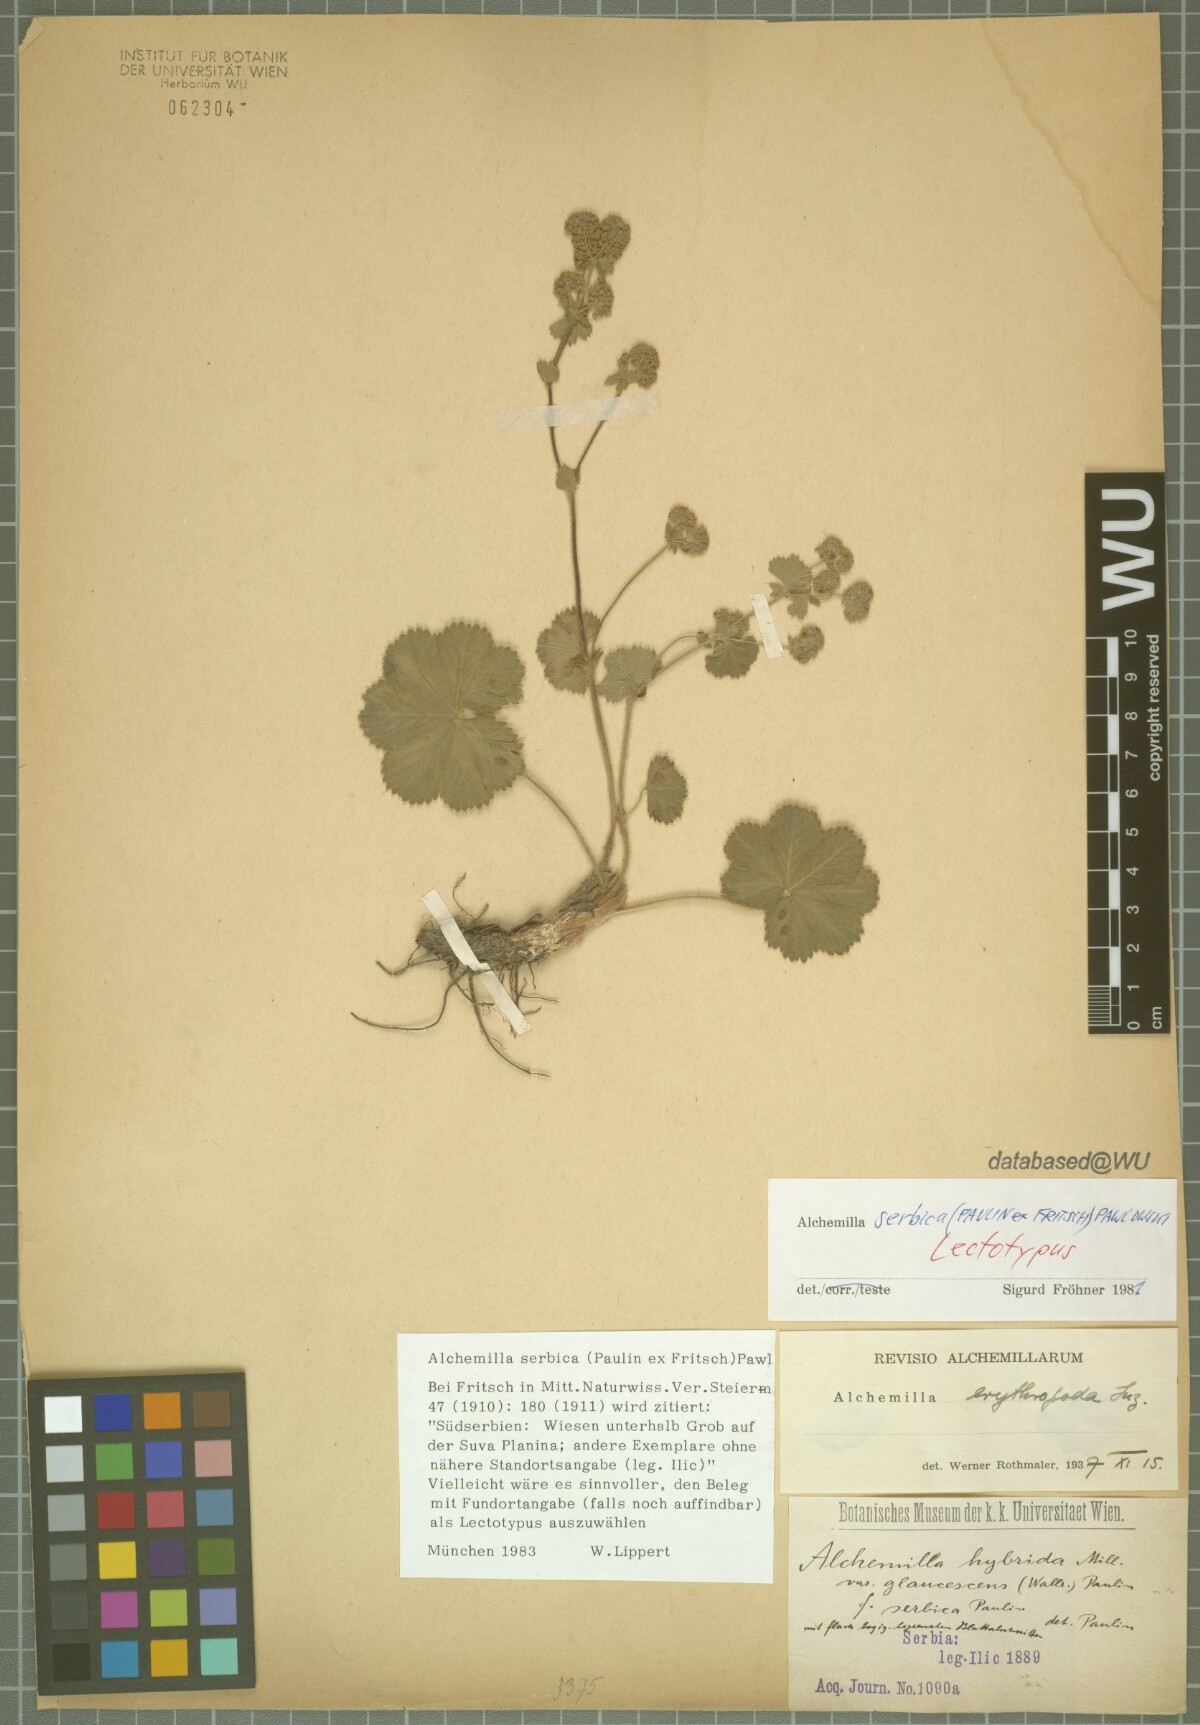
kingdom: Plantae
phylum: Tracheophyta
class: Magnoliopsida
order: Rosales
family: Rosaceae
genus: Alchemilla
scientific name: Alchemilla serbica
